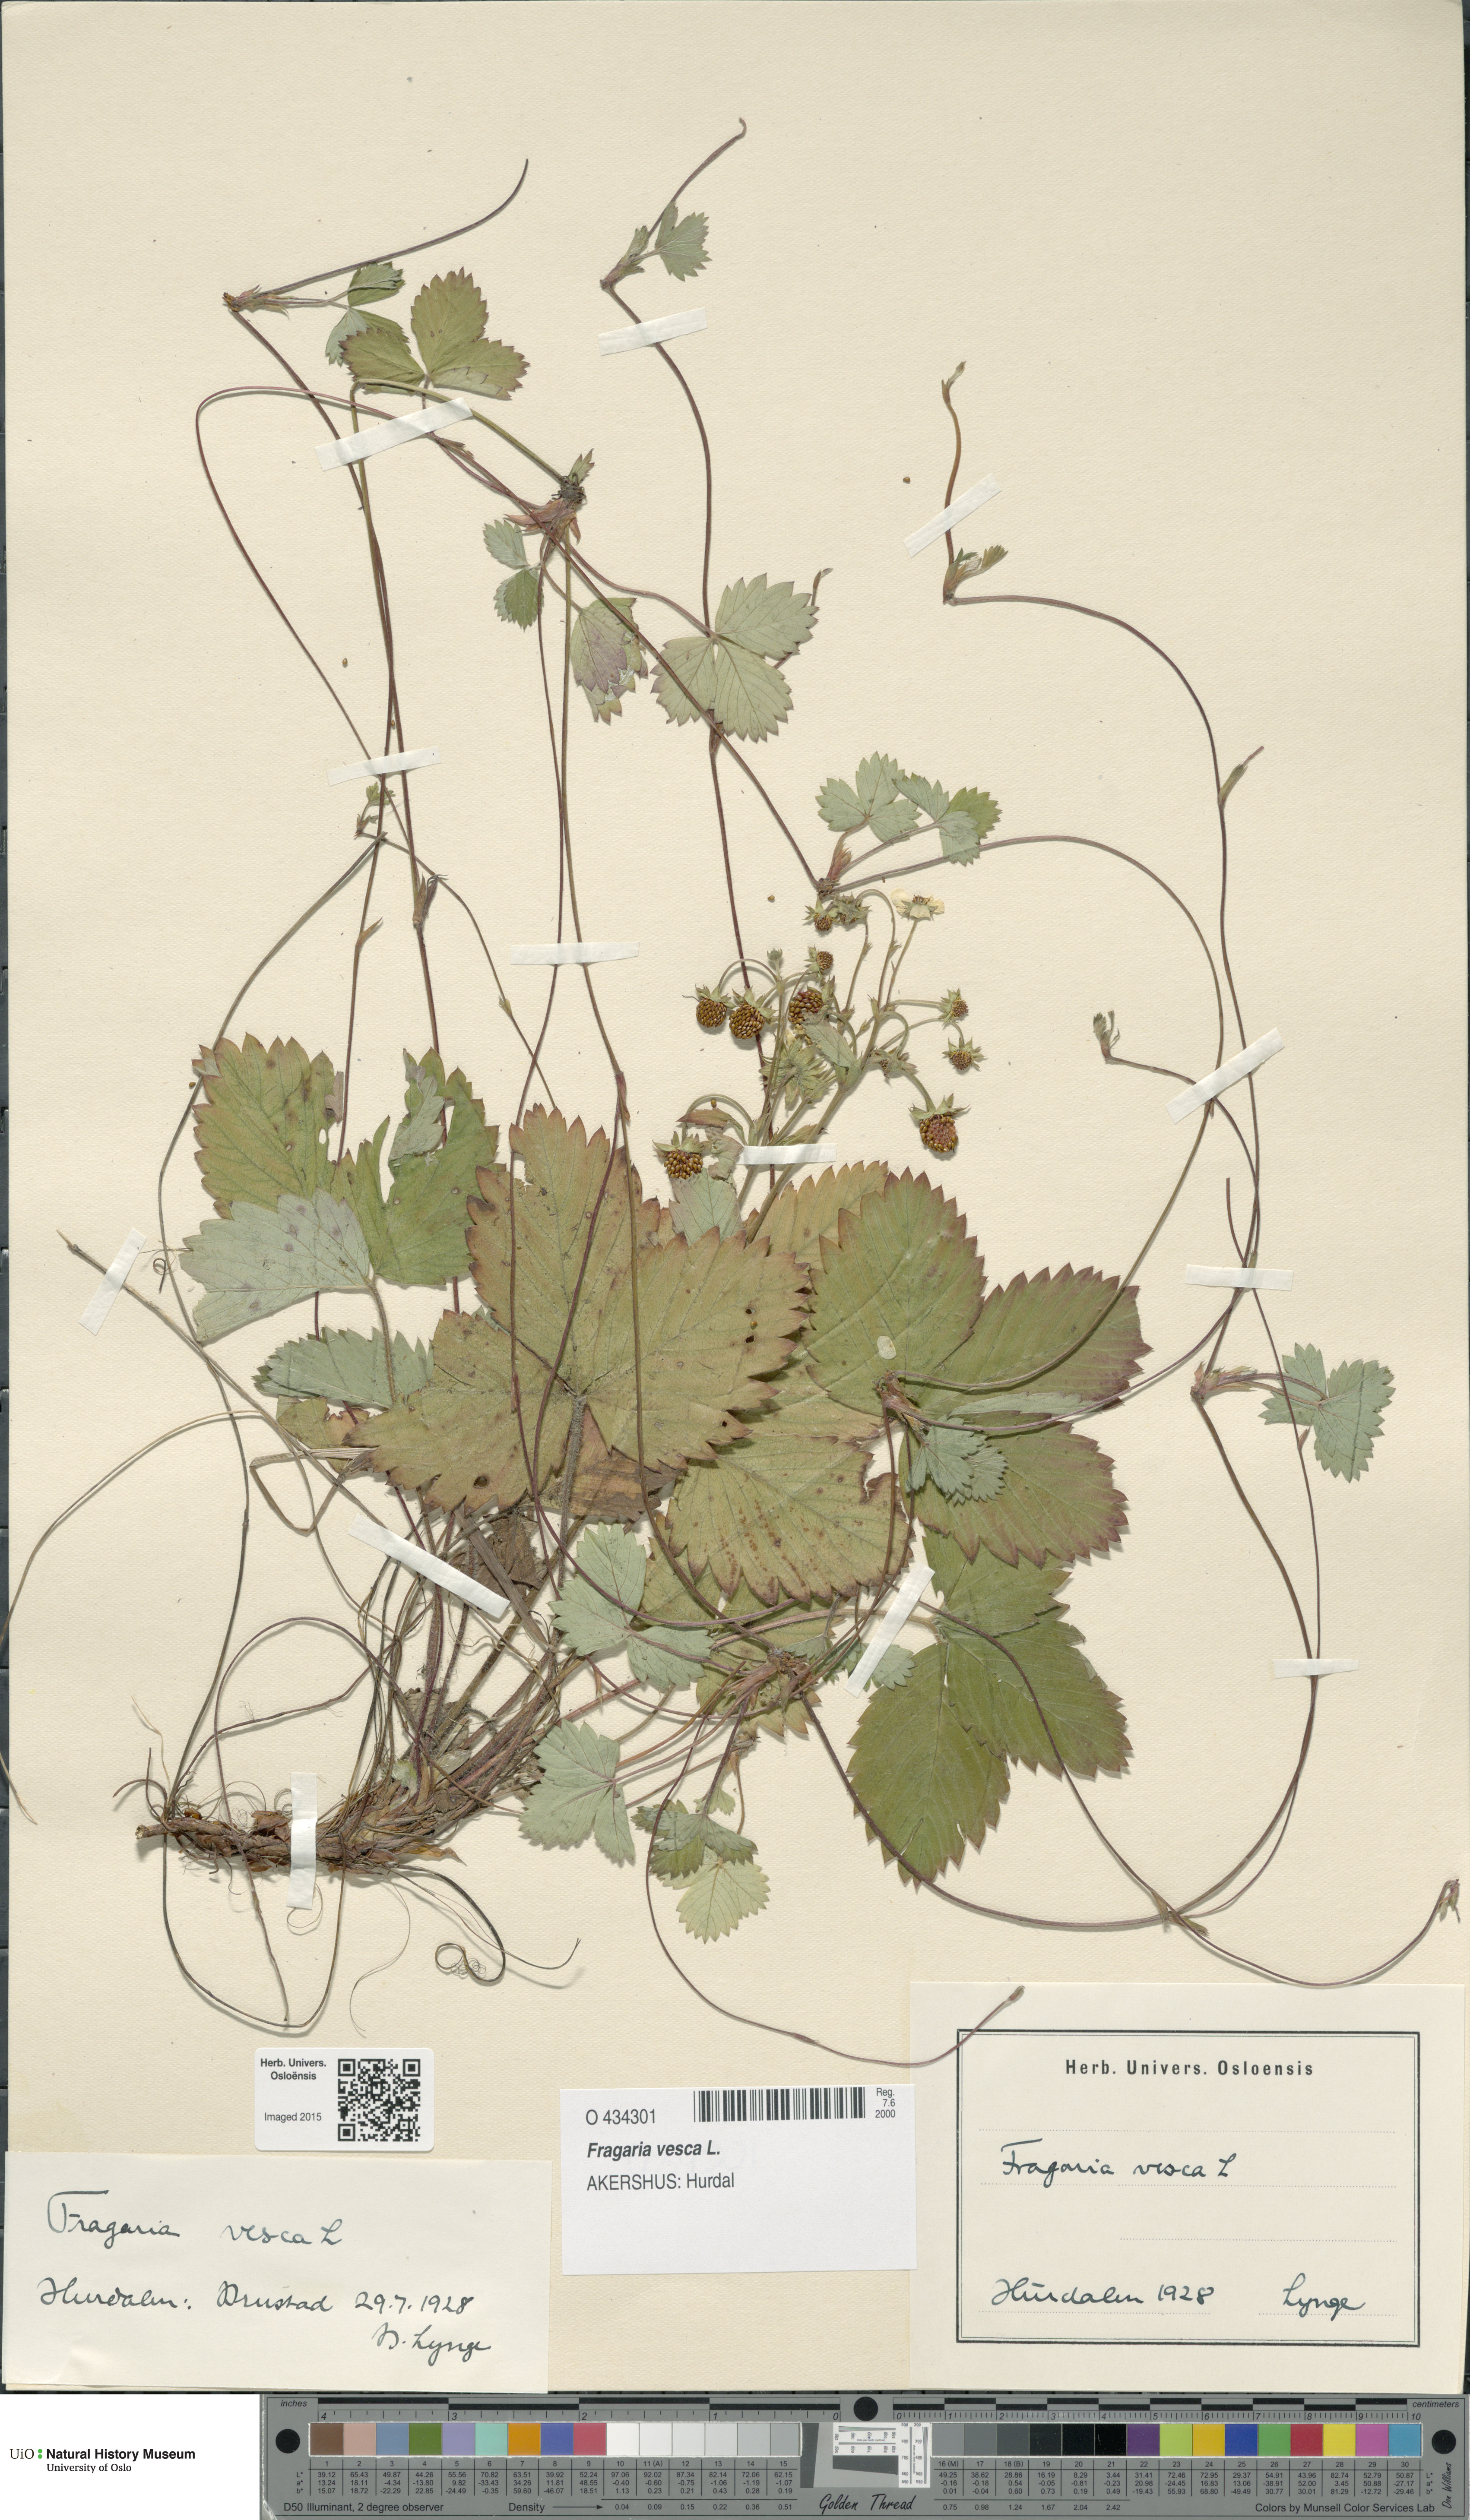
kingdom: Plantae
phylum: Tracheophyta
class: Magnoliopsida
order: Rosales
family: Rosaceae
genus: Fragaria
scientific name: Fragaria vesca
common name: Wild strawberry
